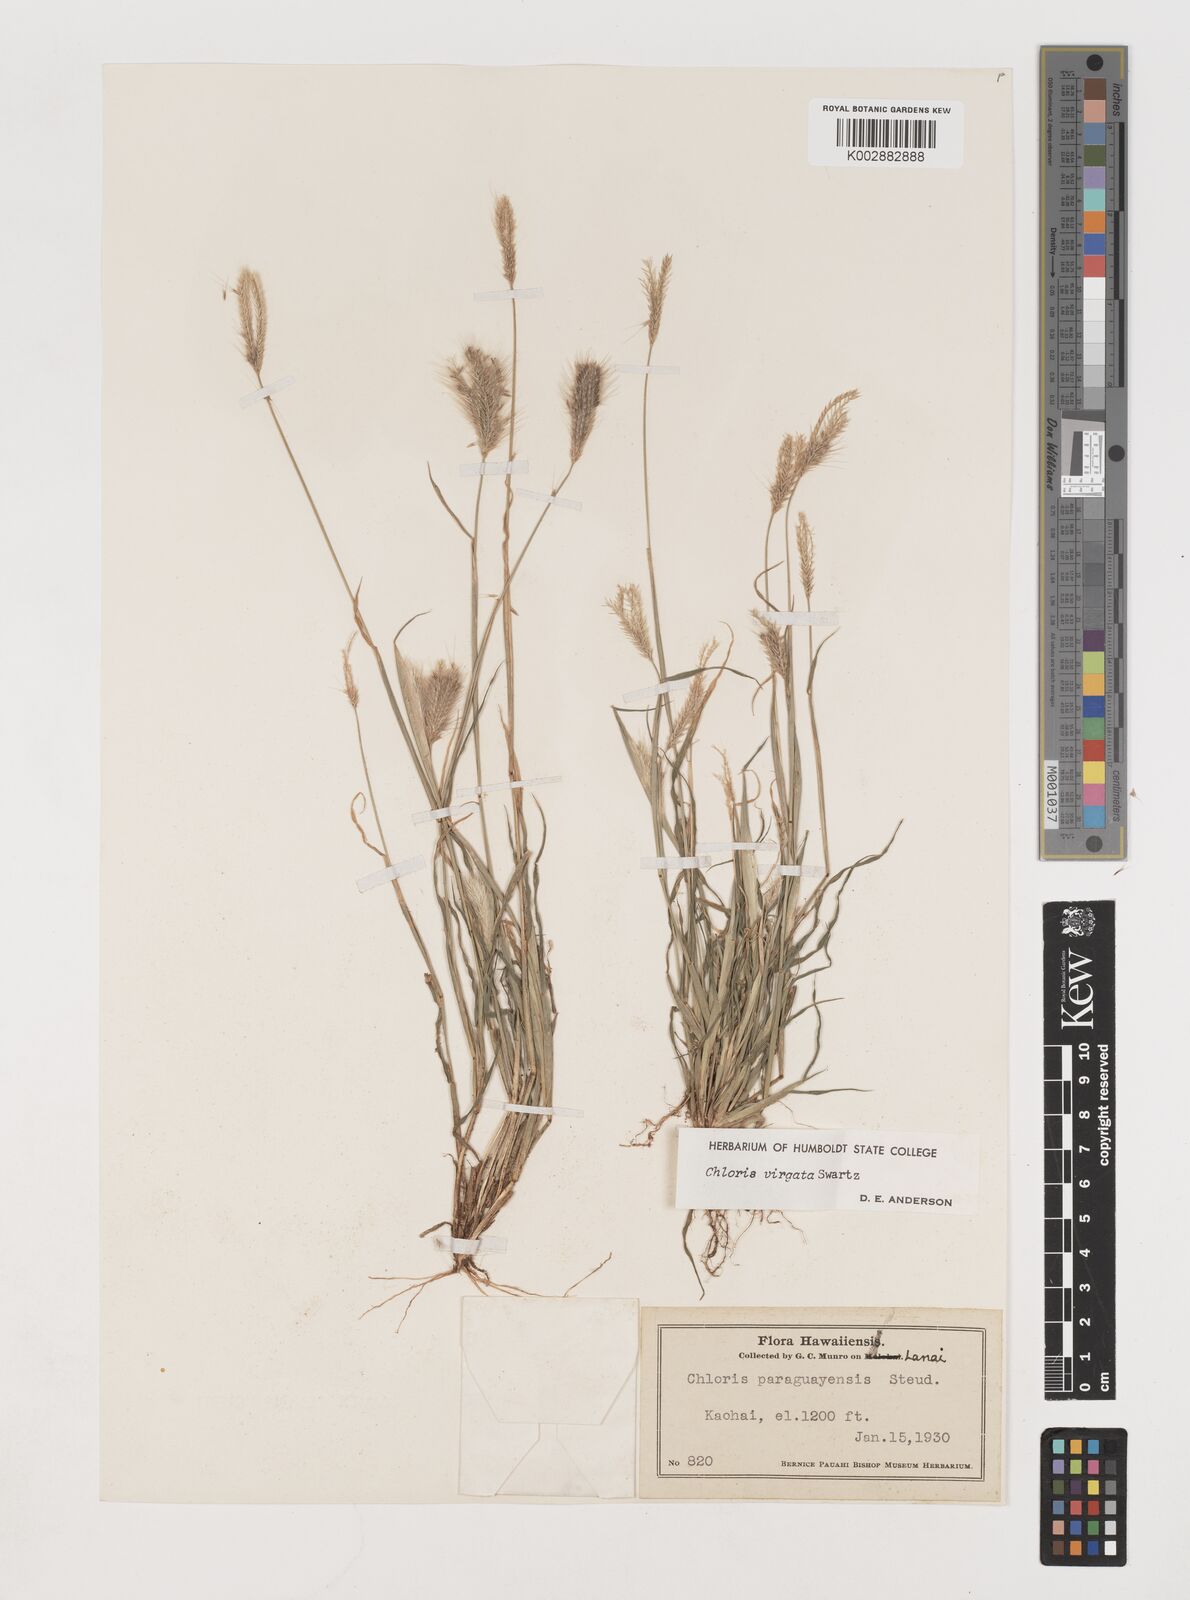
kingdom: Plantae
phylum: Tracheophyta
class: Liliopsida
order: Poales
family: Poaceae
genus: Chloris
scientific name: Chloris virgata
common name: Feathery rhodes-grass
